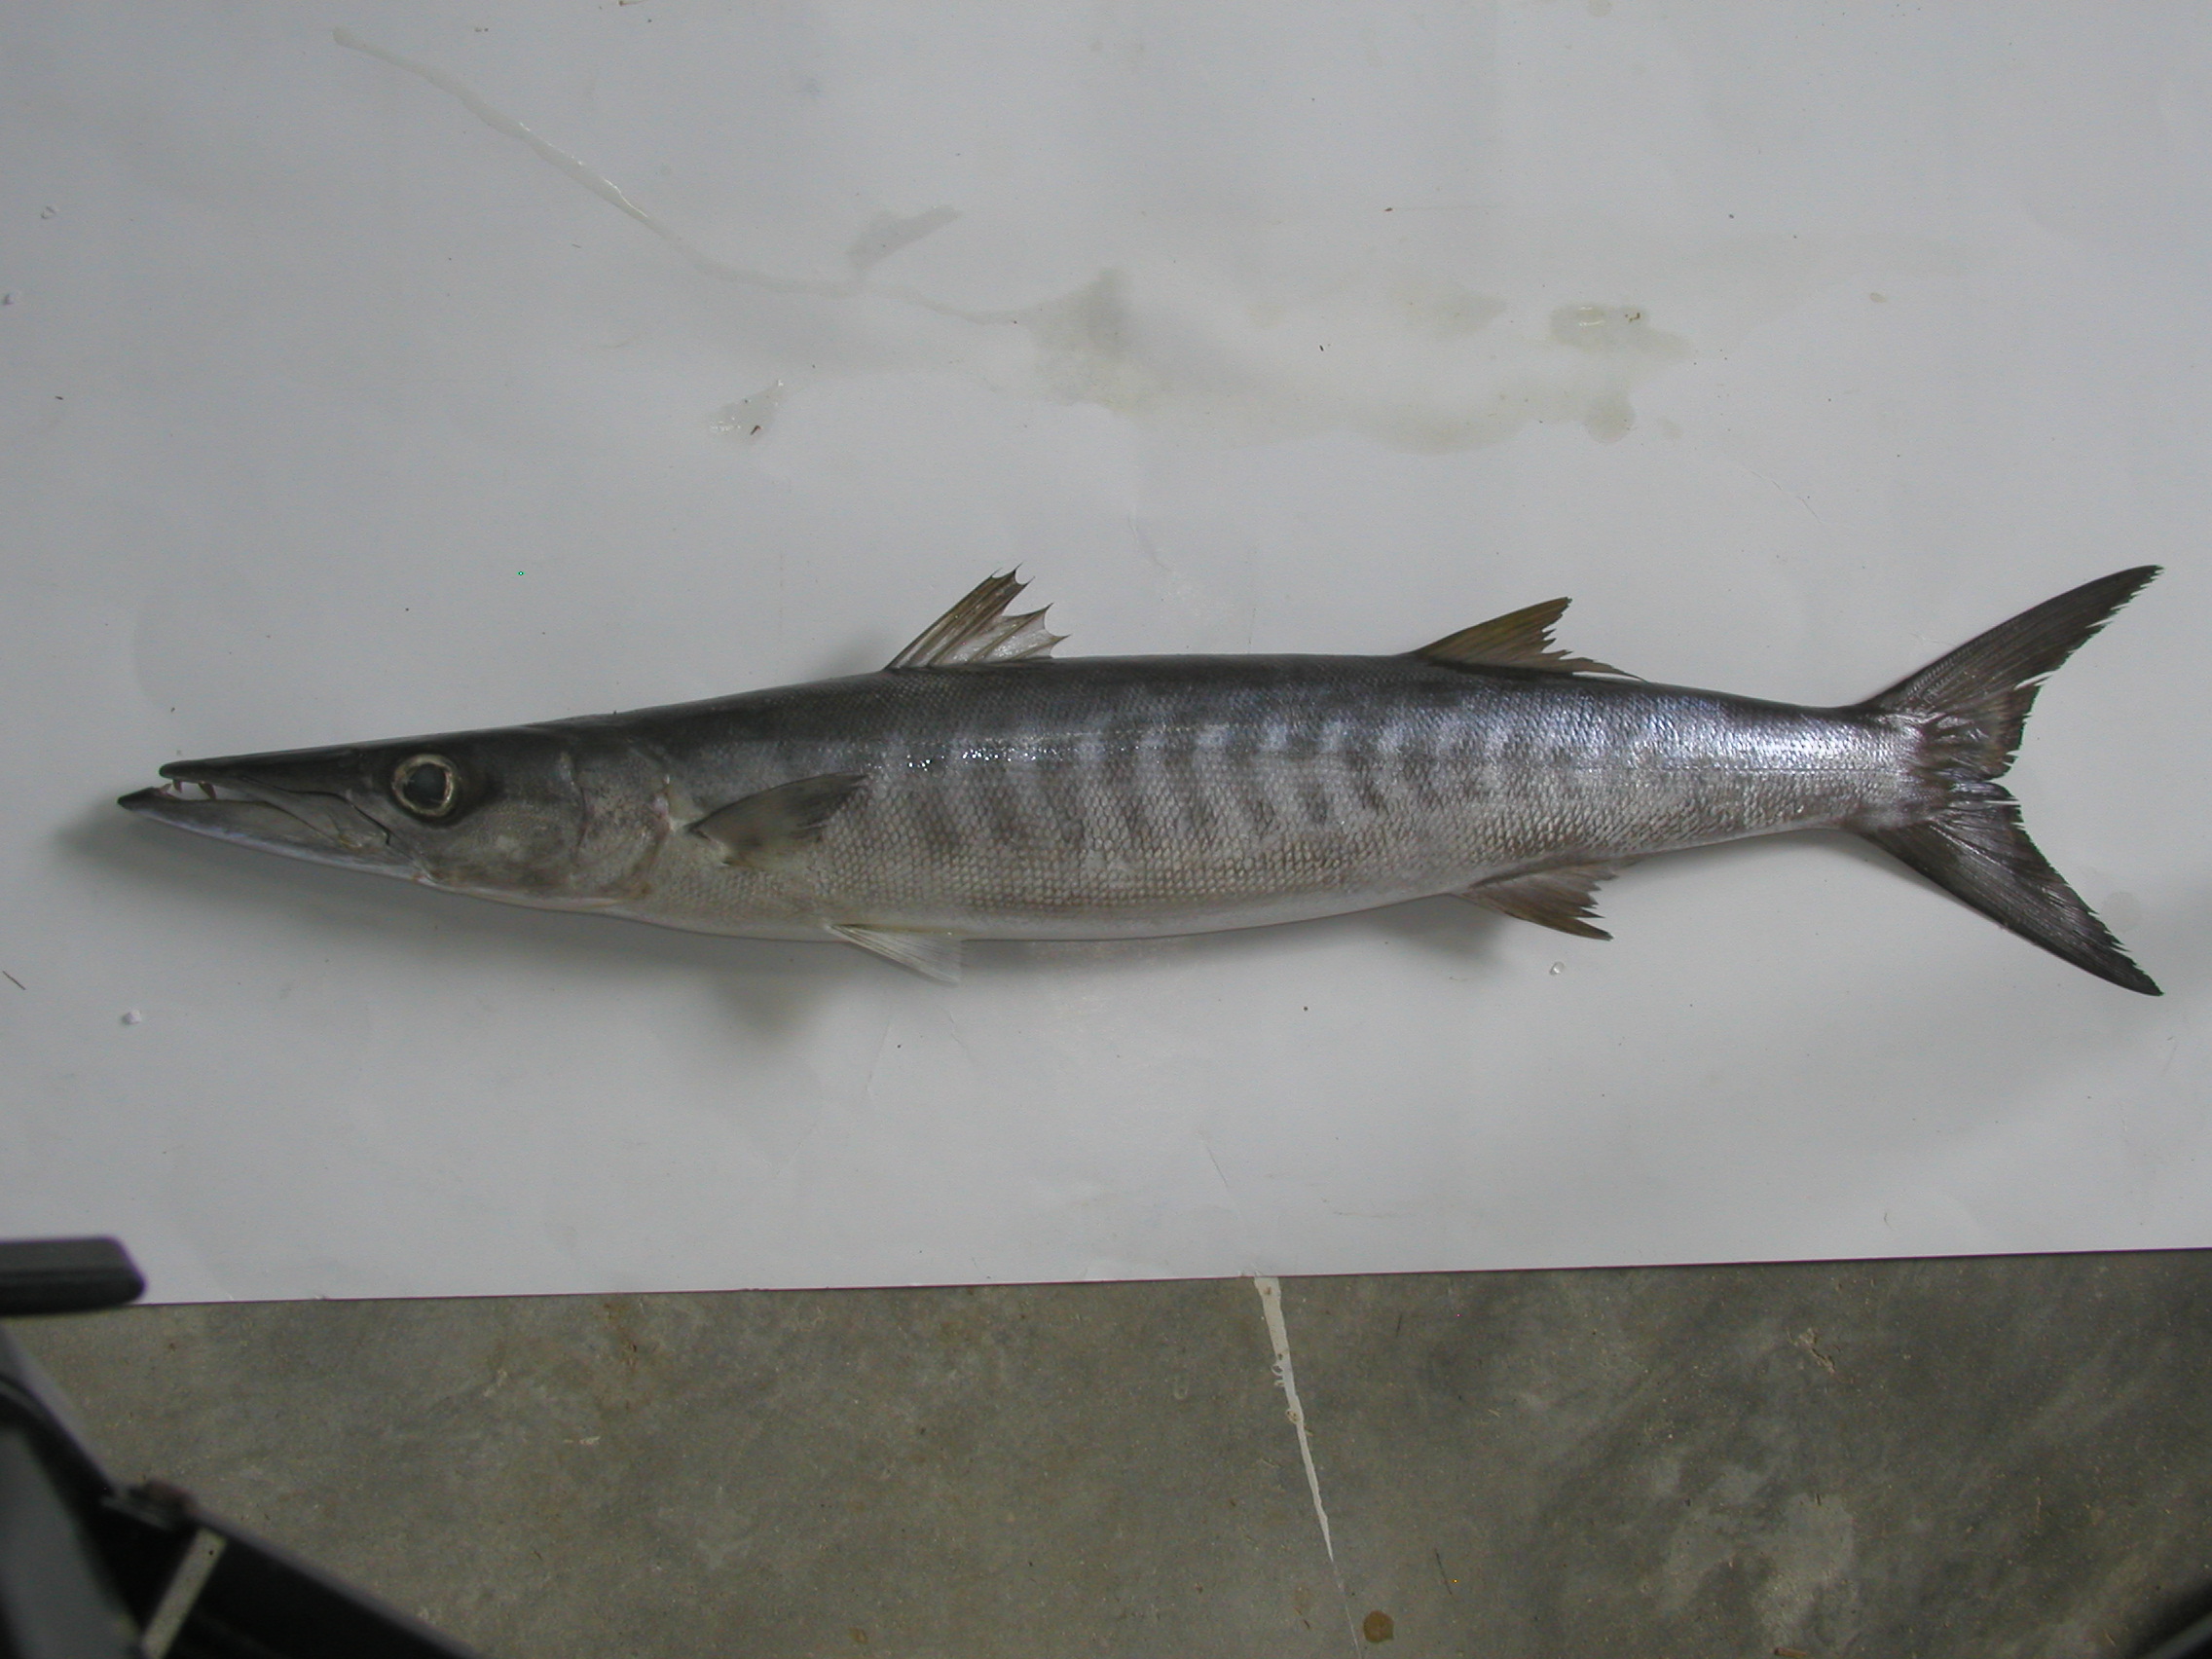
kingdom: Animalia
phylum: Chordata
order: Perciformes
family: Sphyraenidae
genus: Sphyraena
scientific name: Sphyraena putnamae
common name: Sawtooth barracuda
